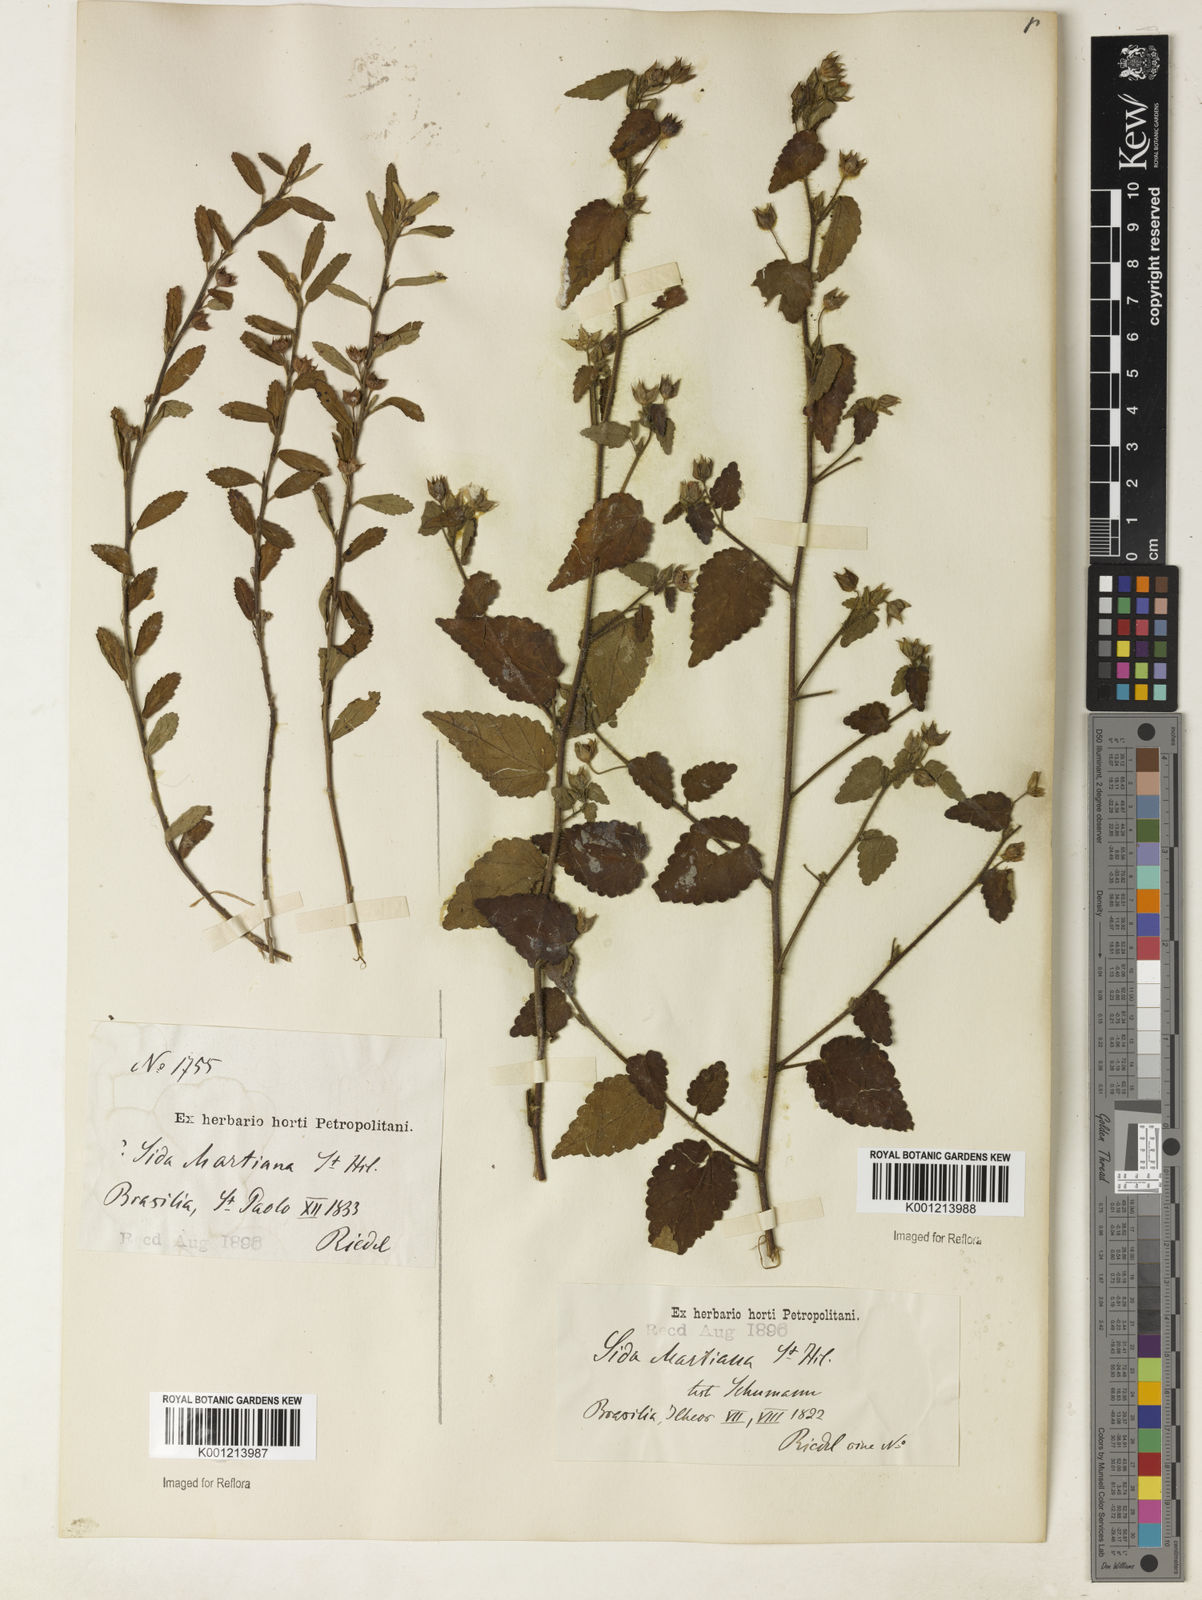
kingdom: Plantae
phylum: Tracheophyta
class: Magnoliopsida
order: Malvales
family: Malvaceae
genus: Sida
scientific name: Sida aurantiaca
